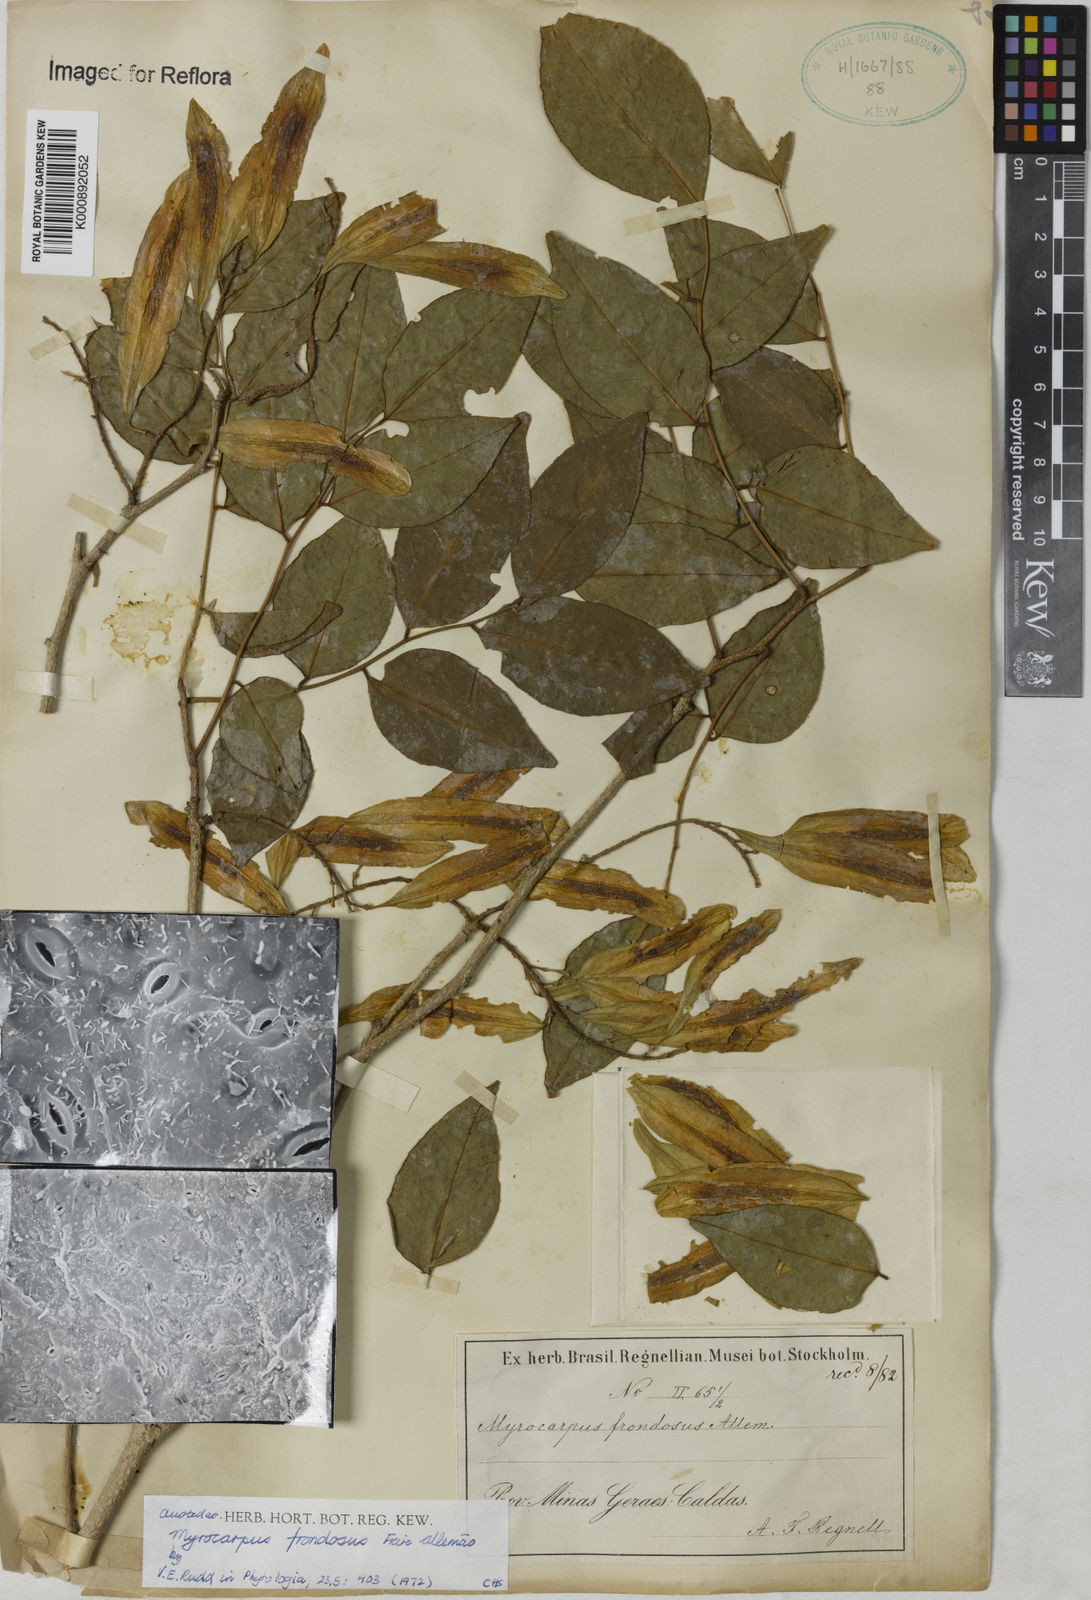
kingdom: Plantae
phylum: Tracheophyta
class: Magnoliopsida
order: Fabales
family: Fabaceae
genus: Myrocarpus
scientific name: Myrocarpus
